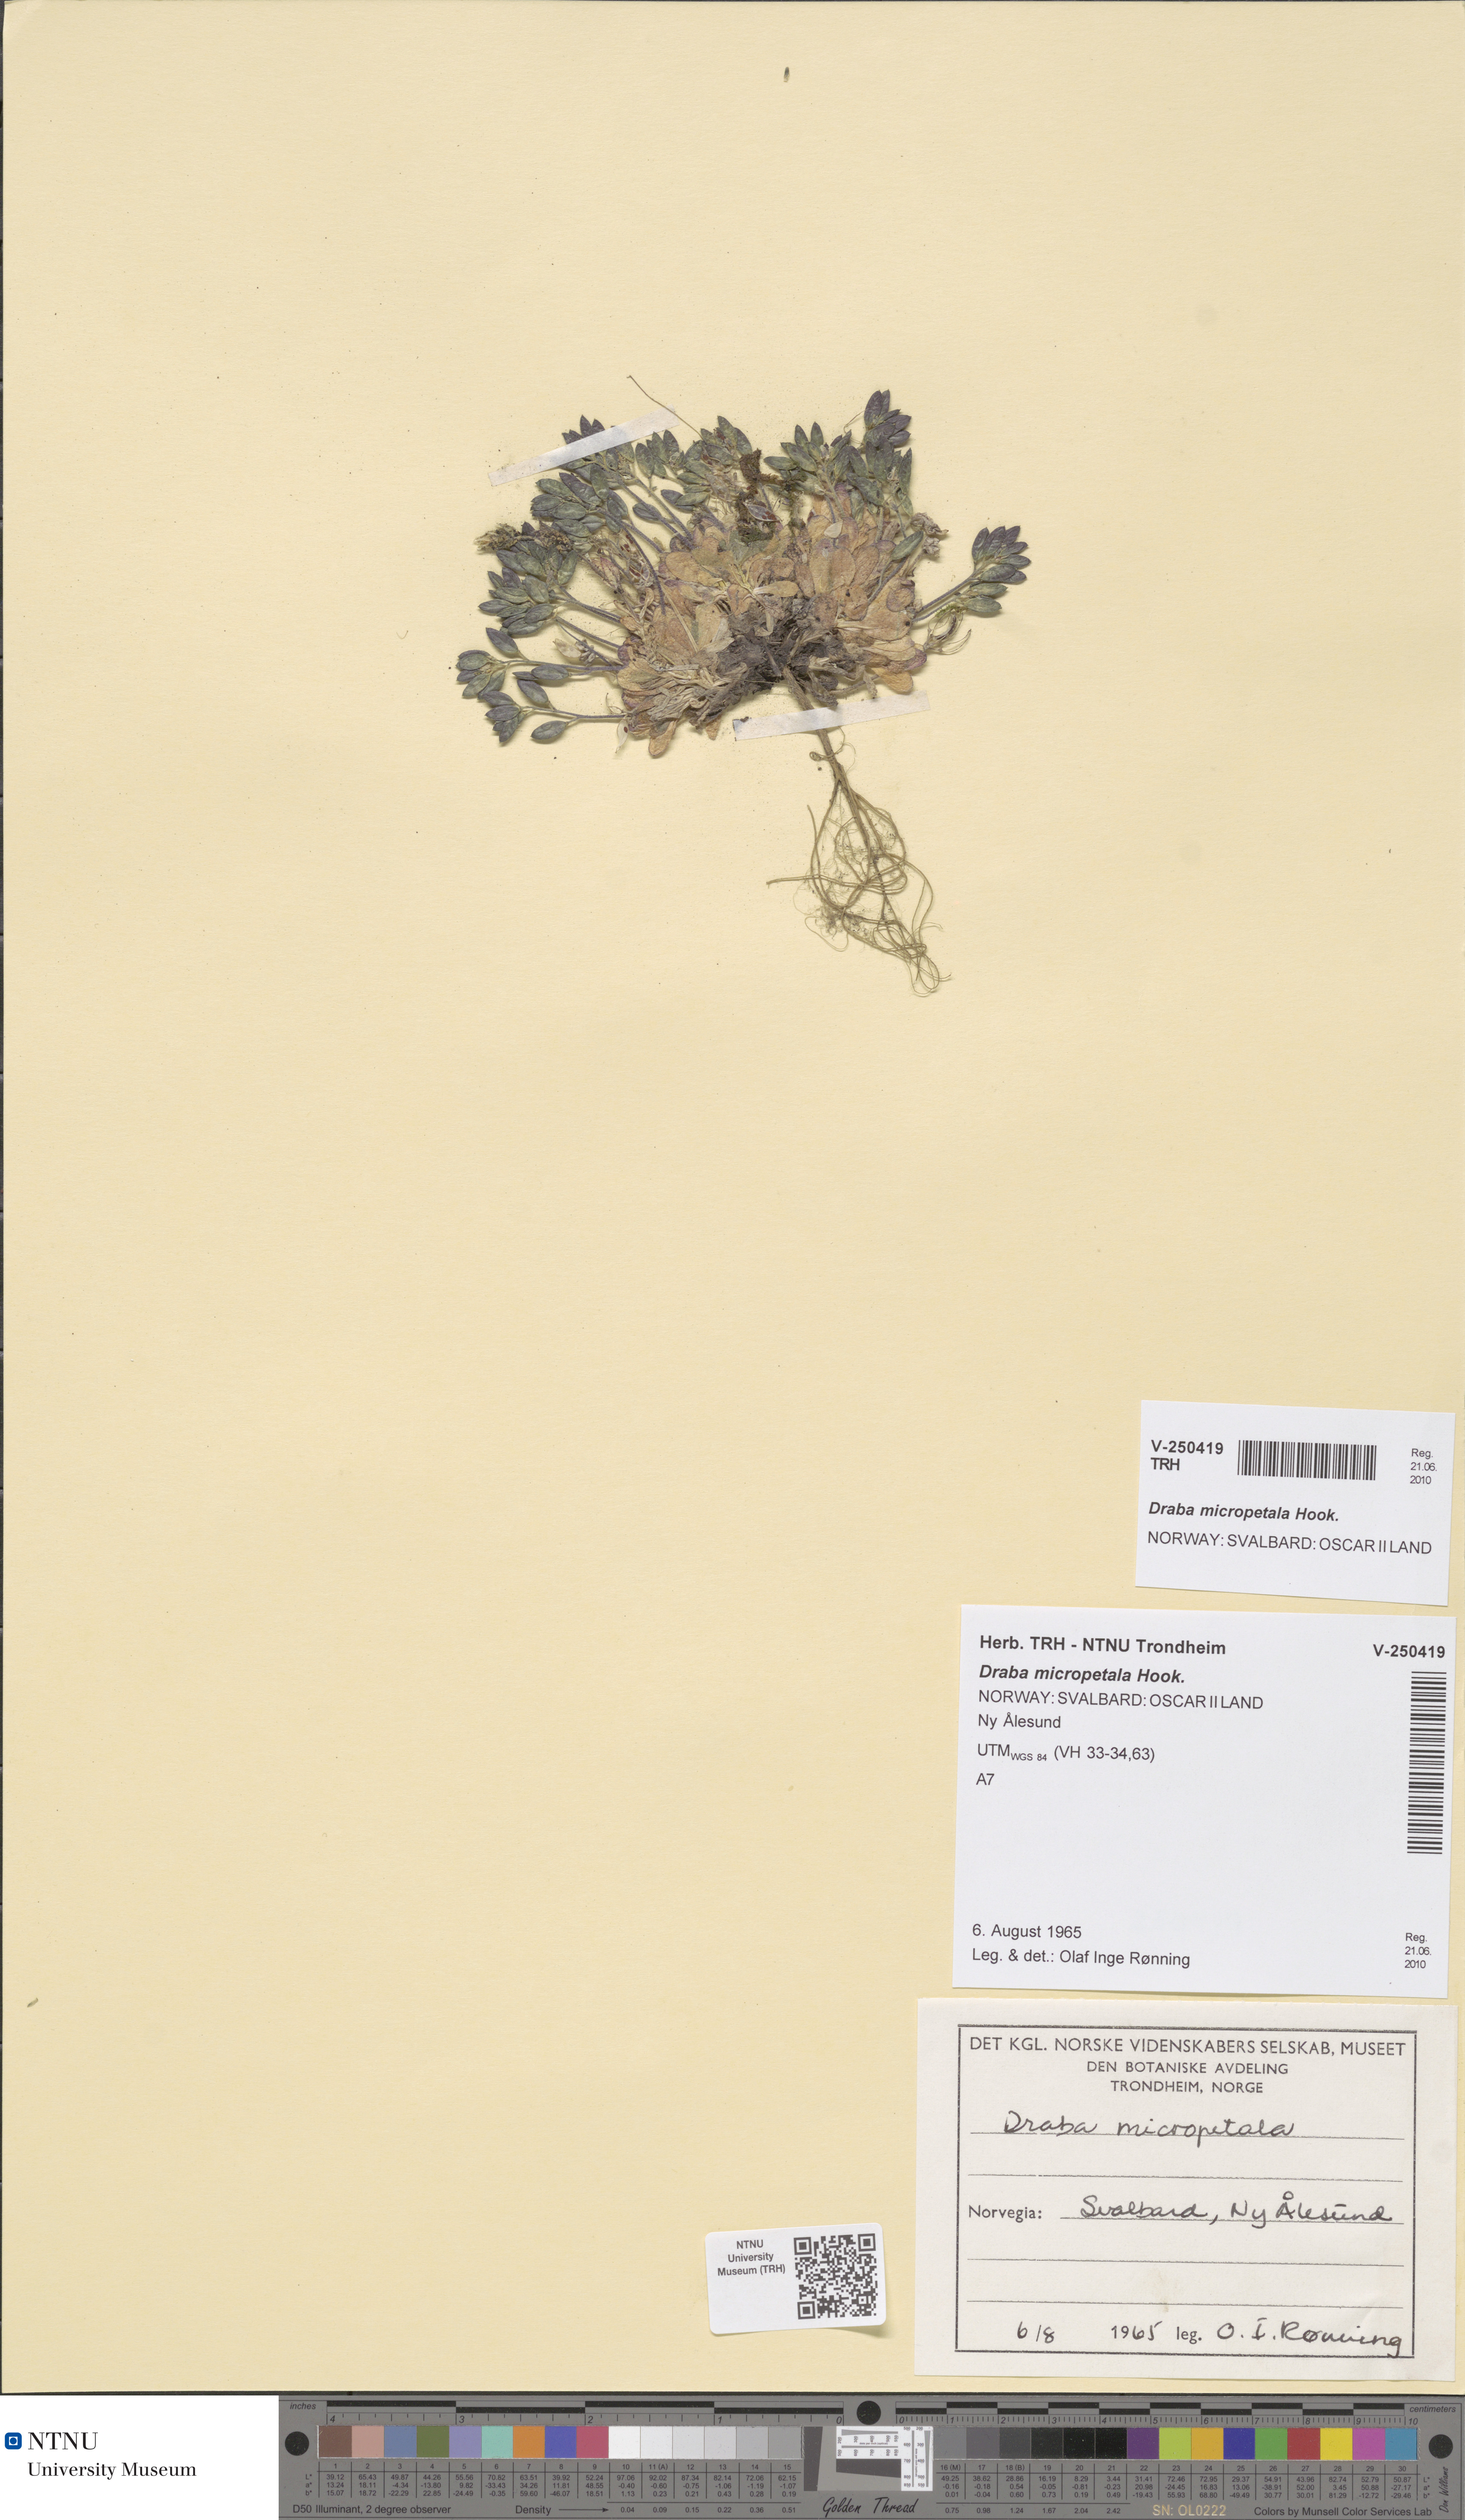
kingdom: Plantae
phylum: Tracheophyta
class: Magnoliopsida
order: Brassicales
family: Brassicaceae
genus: Draba
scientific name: Draba micropetala
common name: Small-flowered draba
